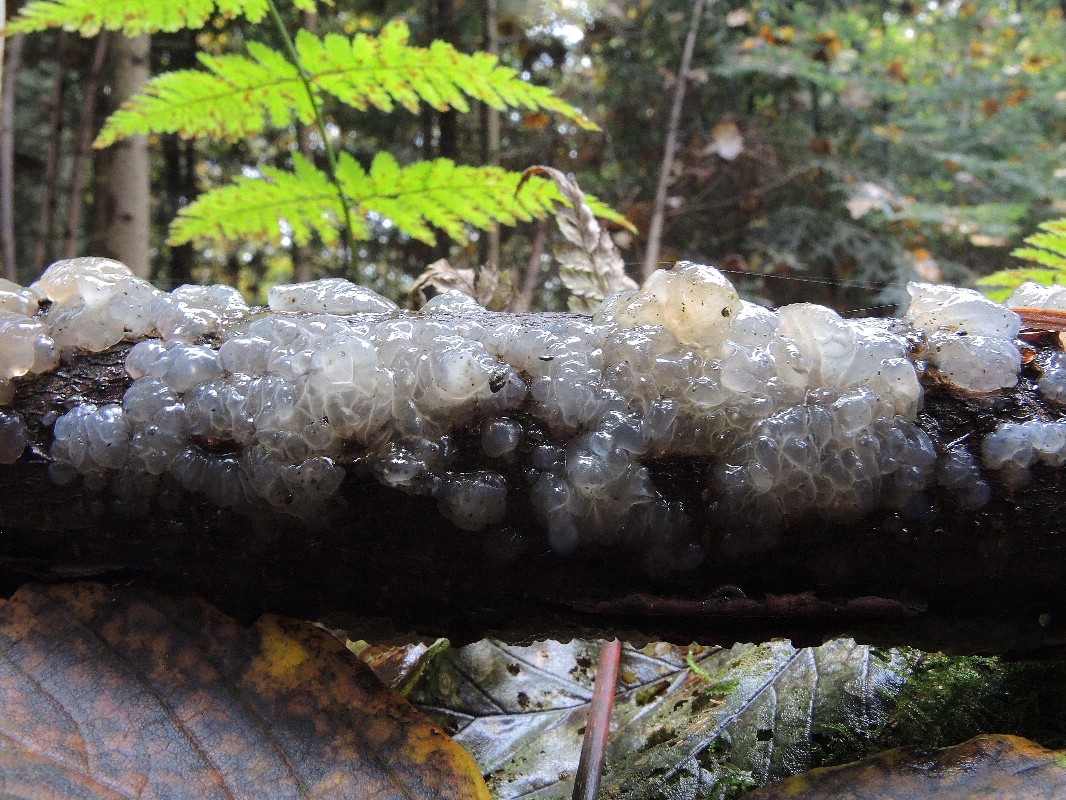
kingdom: Fungi
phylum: Basidiomycota
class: Agaricomycetes
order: Auriculariales
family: Hyaloriaceae
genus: Myxarium
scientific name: Myxarium nucleatum
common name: klar bævretop
